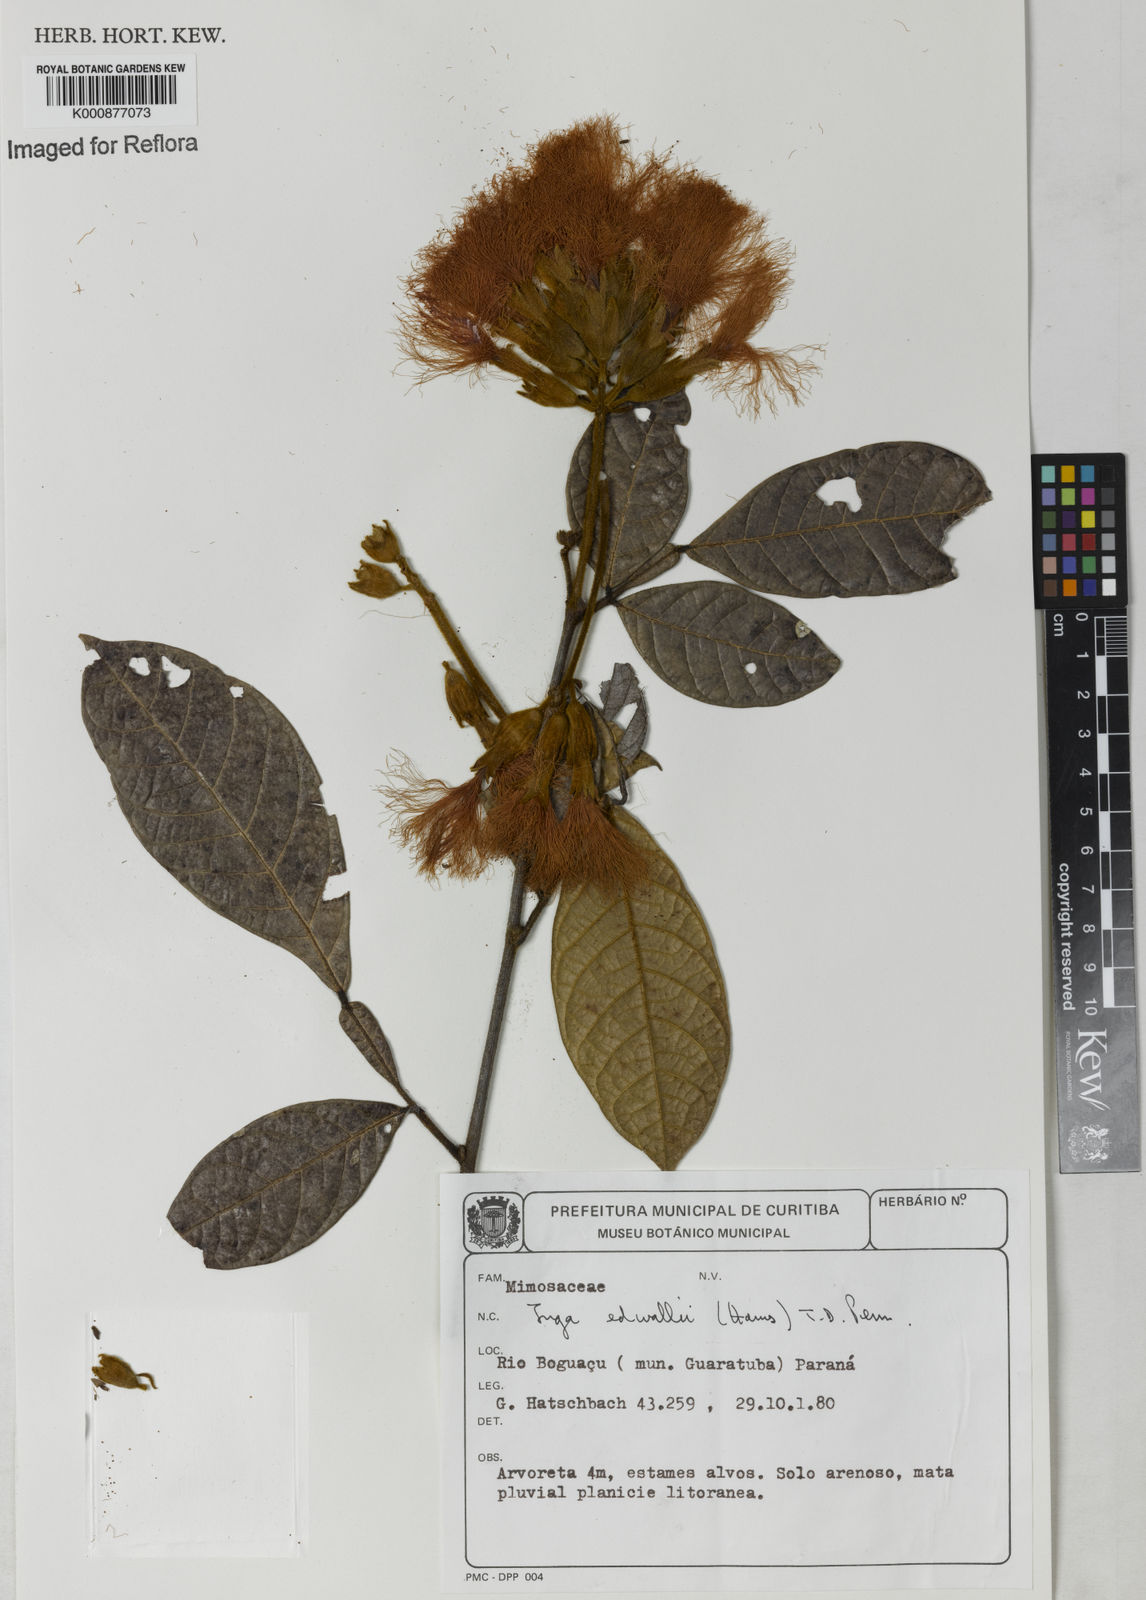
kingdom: Plantae
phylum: Tracheophyta
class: Magnoliopsida
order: Fabales
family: Fabaceae
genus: Inga
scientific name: Inga edwallii
